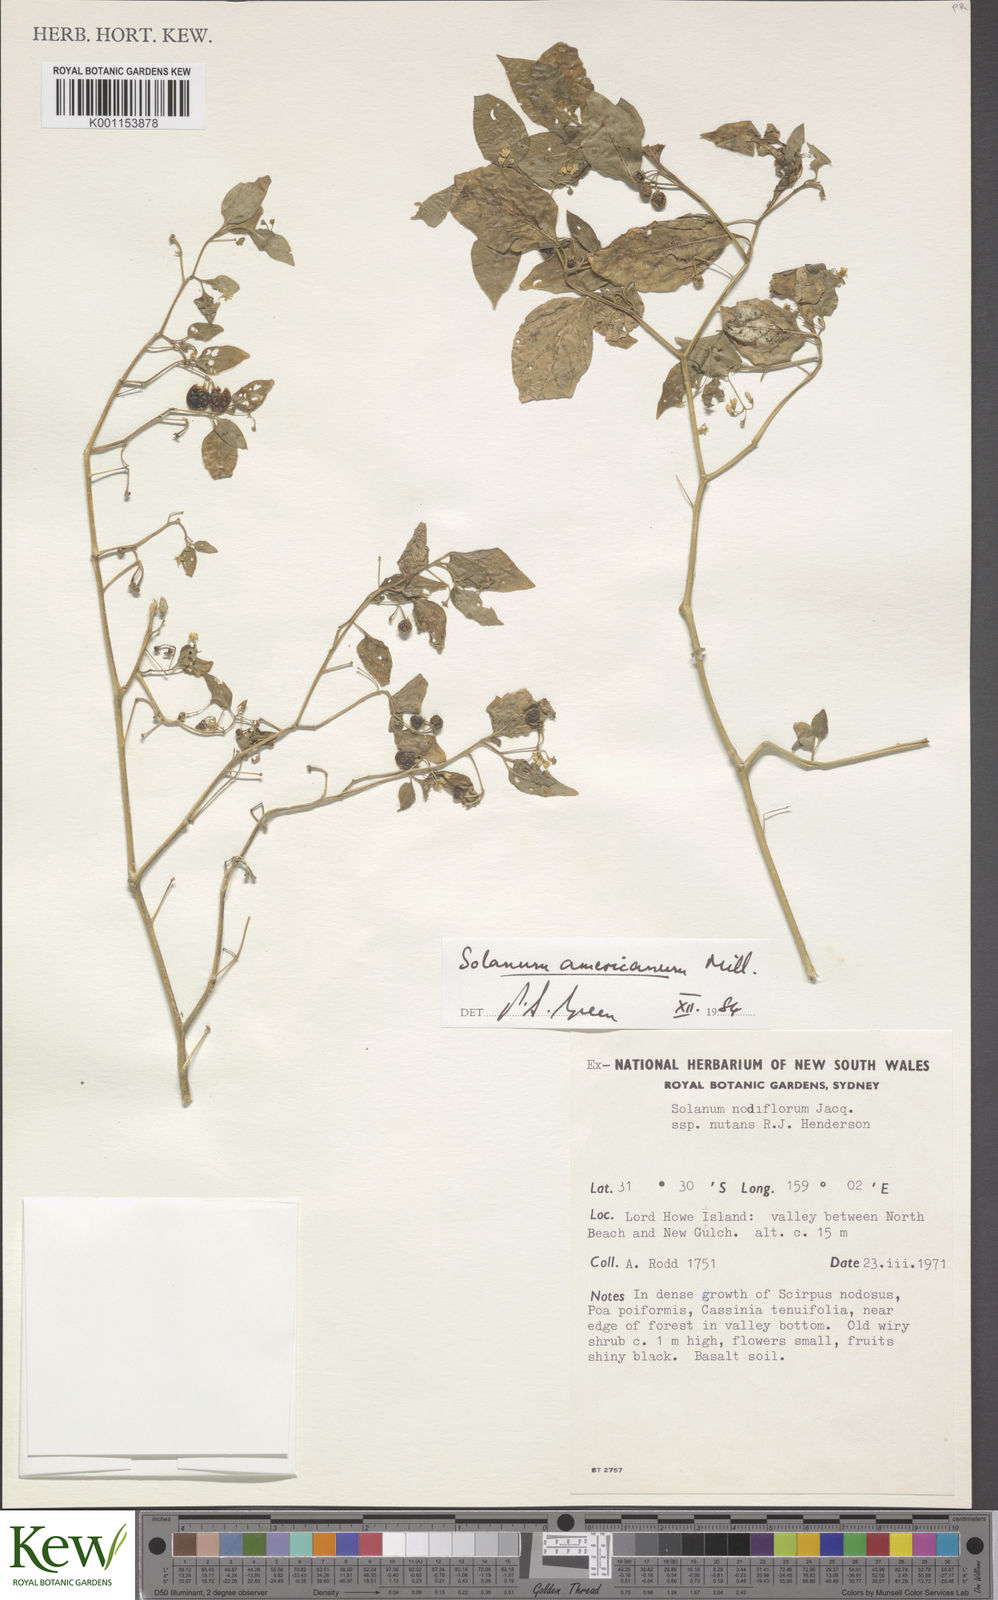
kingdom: Plantae
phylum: Tracheophyta
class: Magnoliopsida
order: Solanales
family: Solanaceae
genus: Solanum
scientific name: Solanum americanum
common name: American black nightshade
